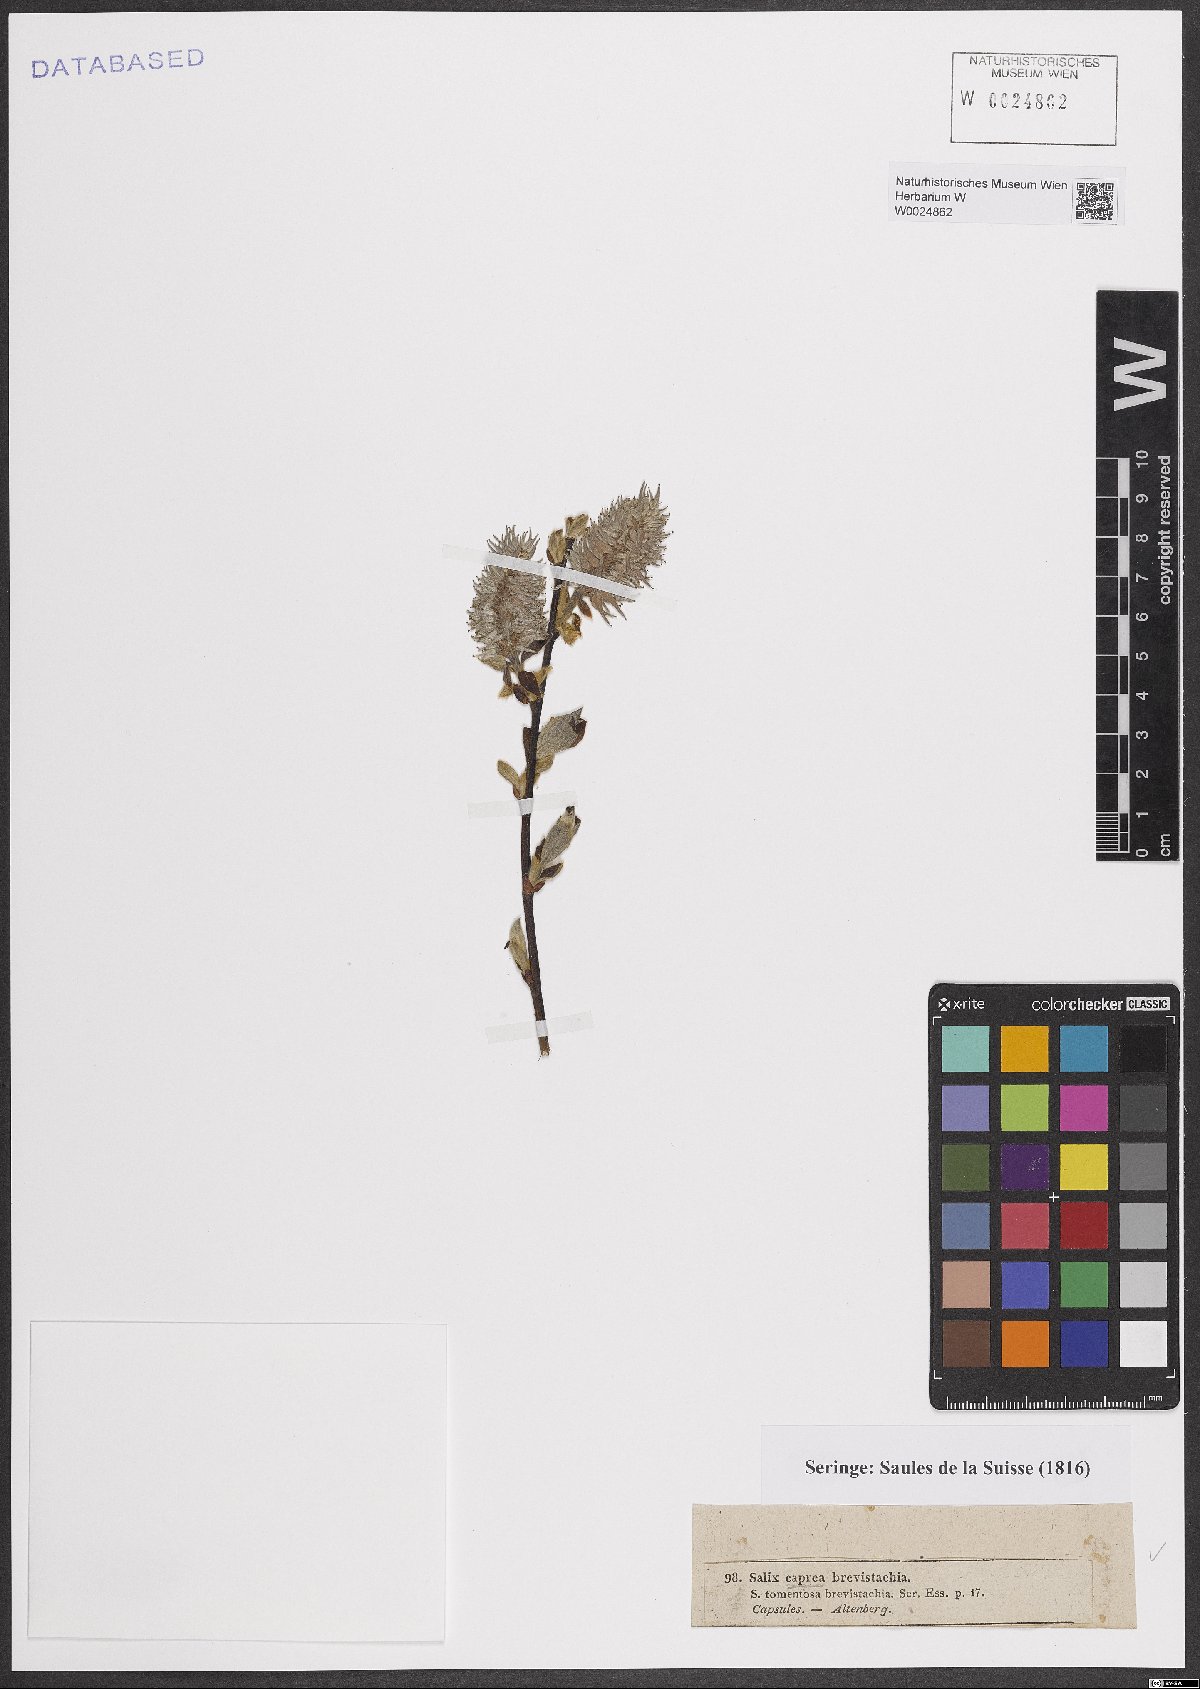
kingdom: Plantae
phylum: Tracheophyta
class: Magnoliopsida
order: Malpighiales
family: Salicaceae
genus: Salix
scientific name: Salix caprea
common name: Goat willow
